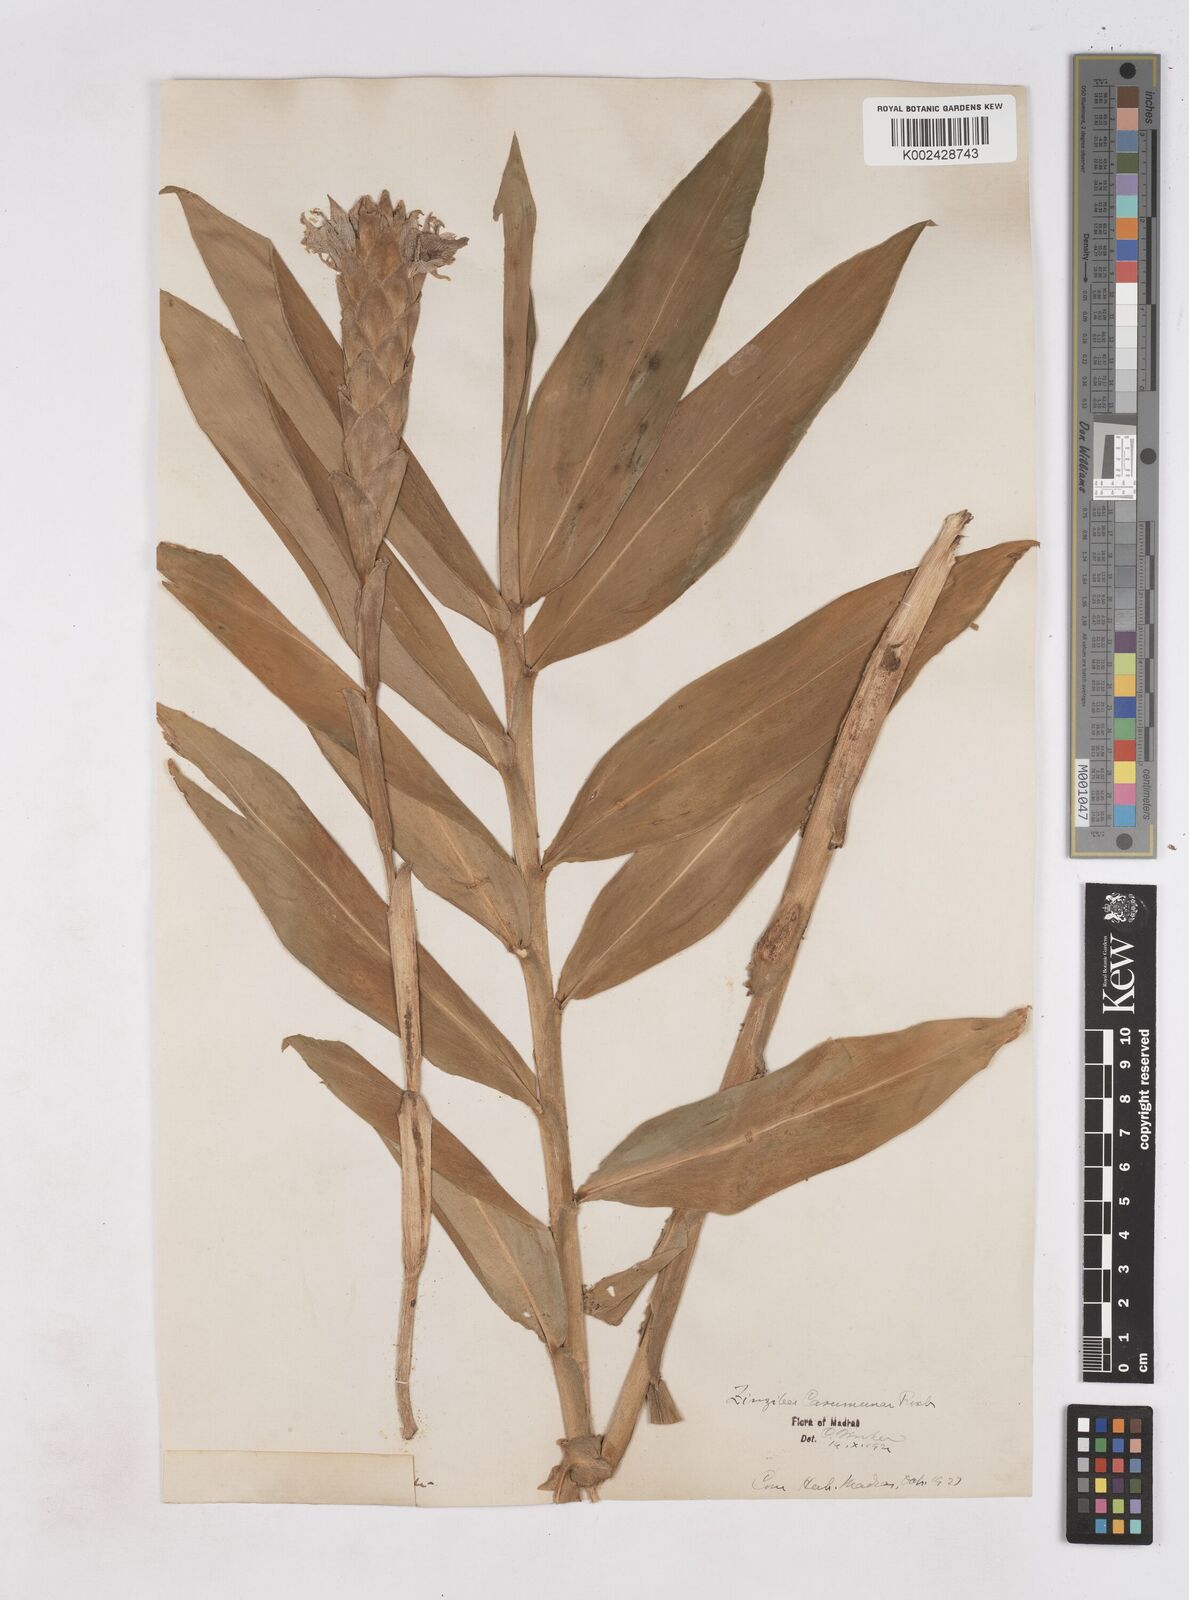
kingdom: Plantae
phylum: Tracheophyta
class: Liliopsida
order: Zingiberales
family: Zingiberaceae
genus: Zingiber
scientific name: Zingiber montanum
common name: Bengal ginger
